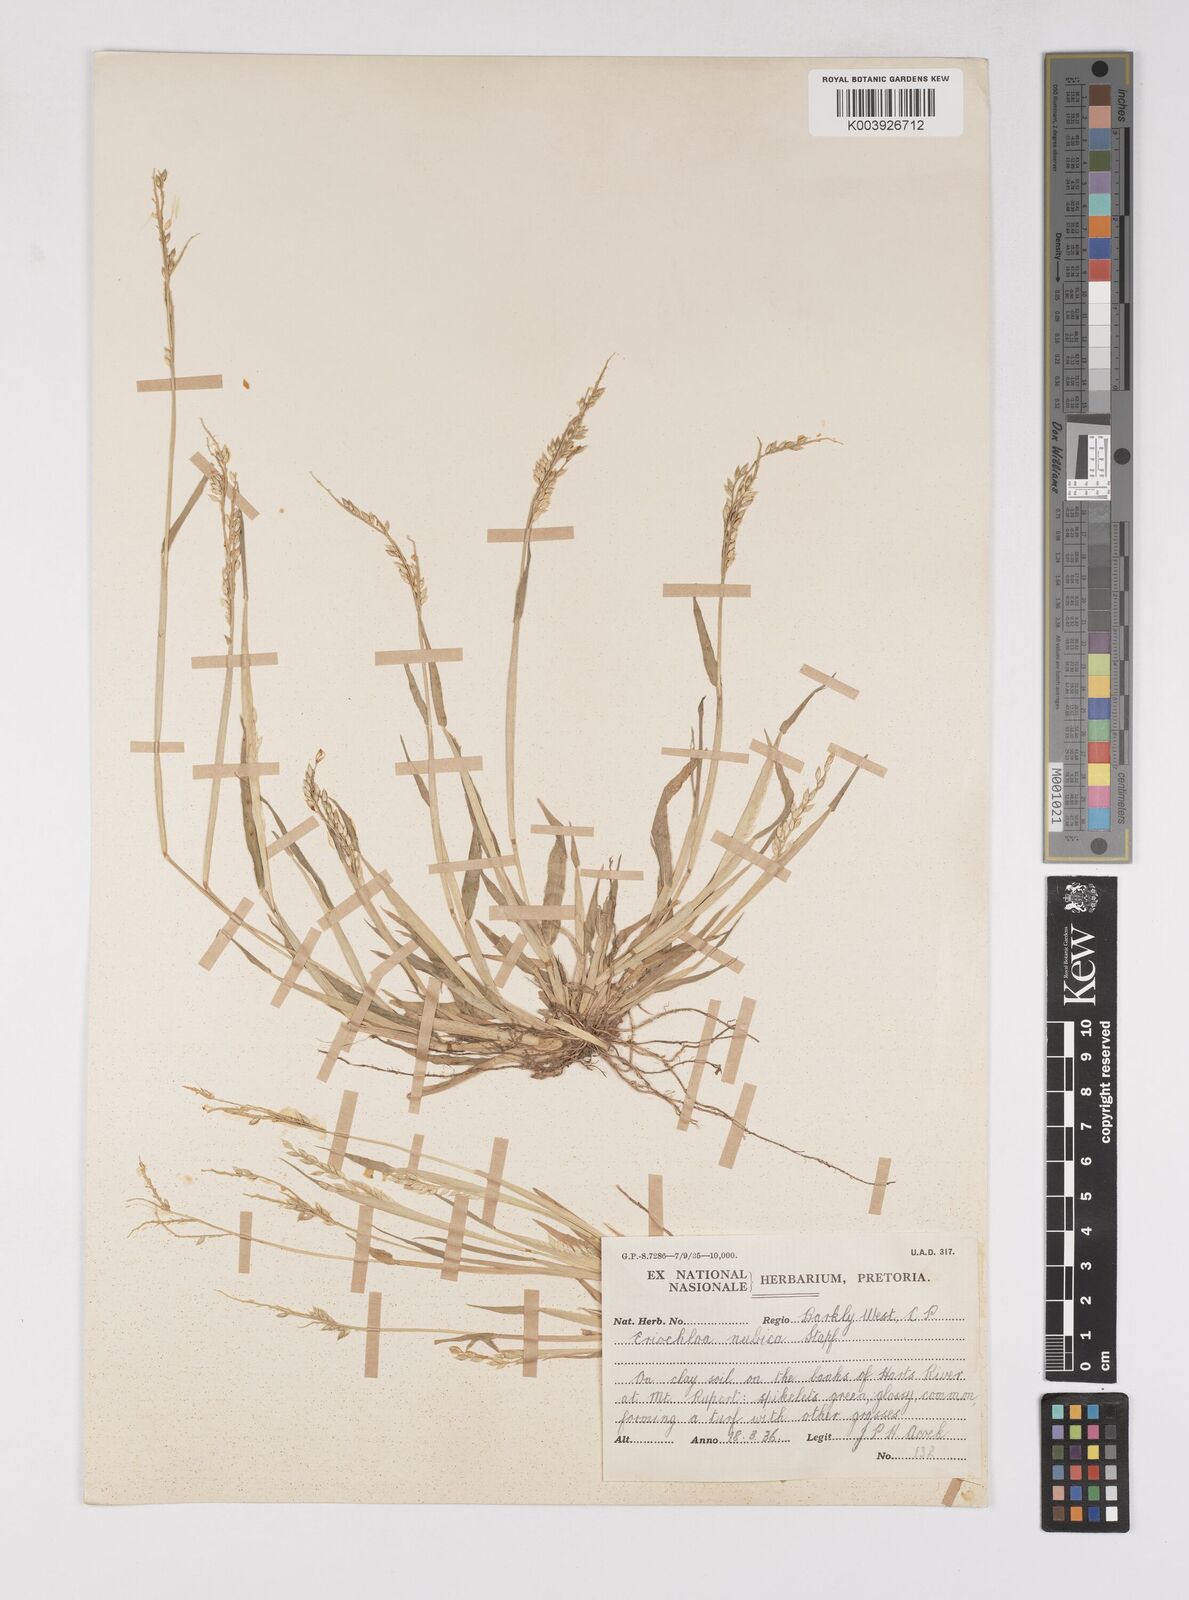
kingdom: Plantae
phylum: Tracheophyta
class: Liliopsida
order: Poales
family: Poaceae
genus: Eriochloa
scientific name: Eriochloa barbatus
